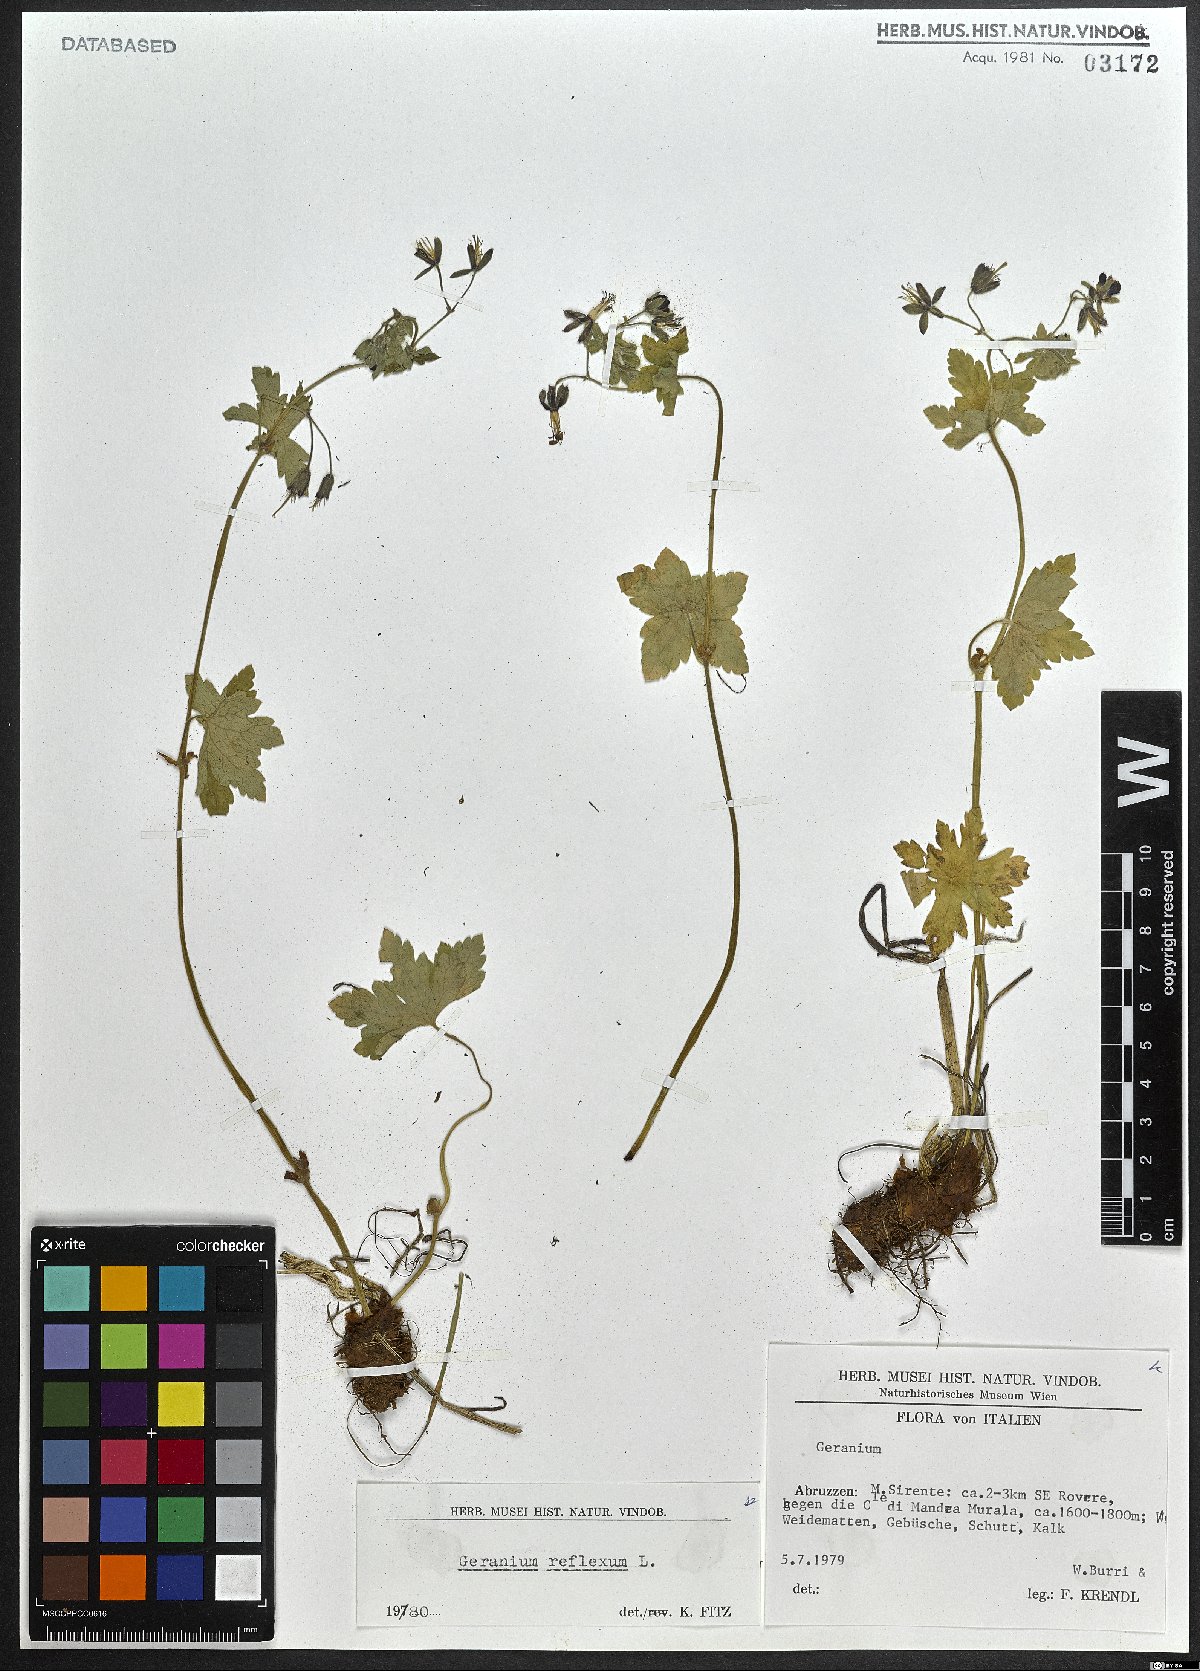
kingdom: Plantae
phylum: Tracheophyta
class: Magnoliopsida
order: Geraniales
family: Geraniaceae
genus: Geranium
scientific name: Geranium reflexum
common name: Reflexed crane's-bill
